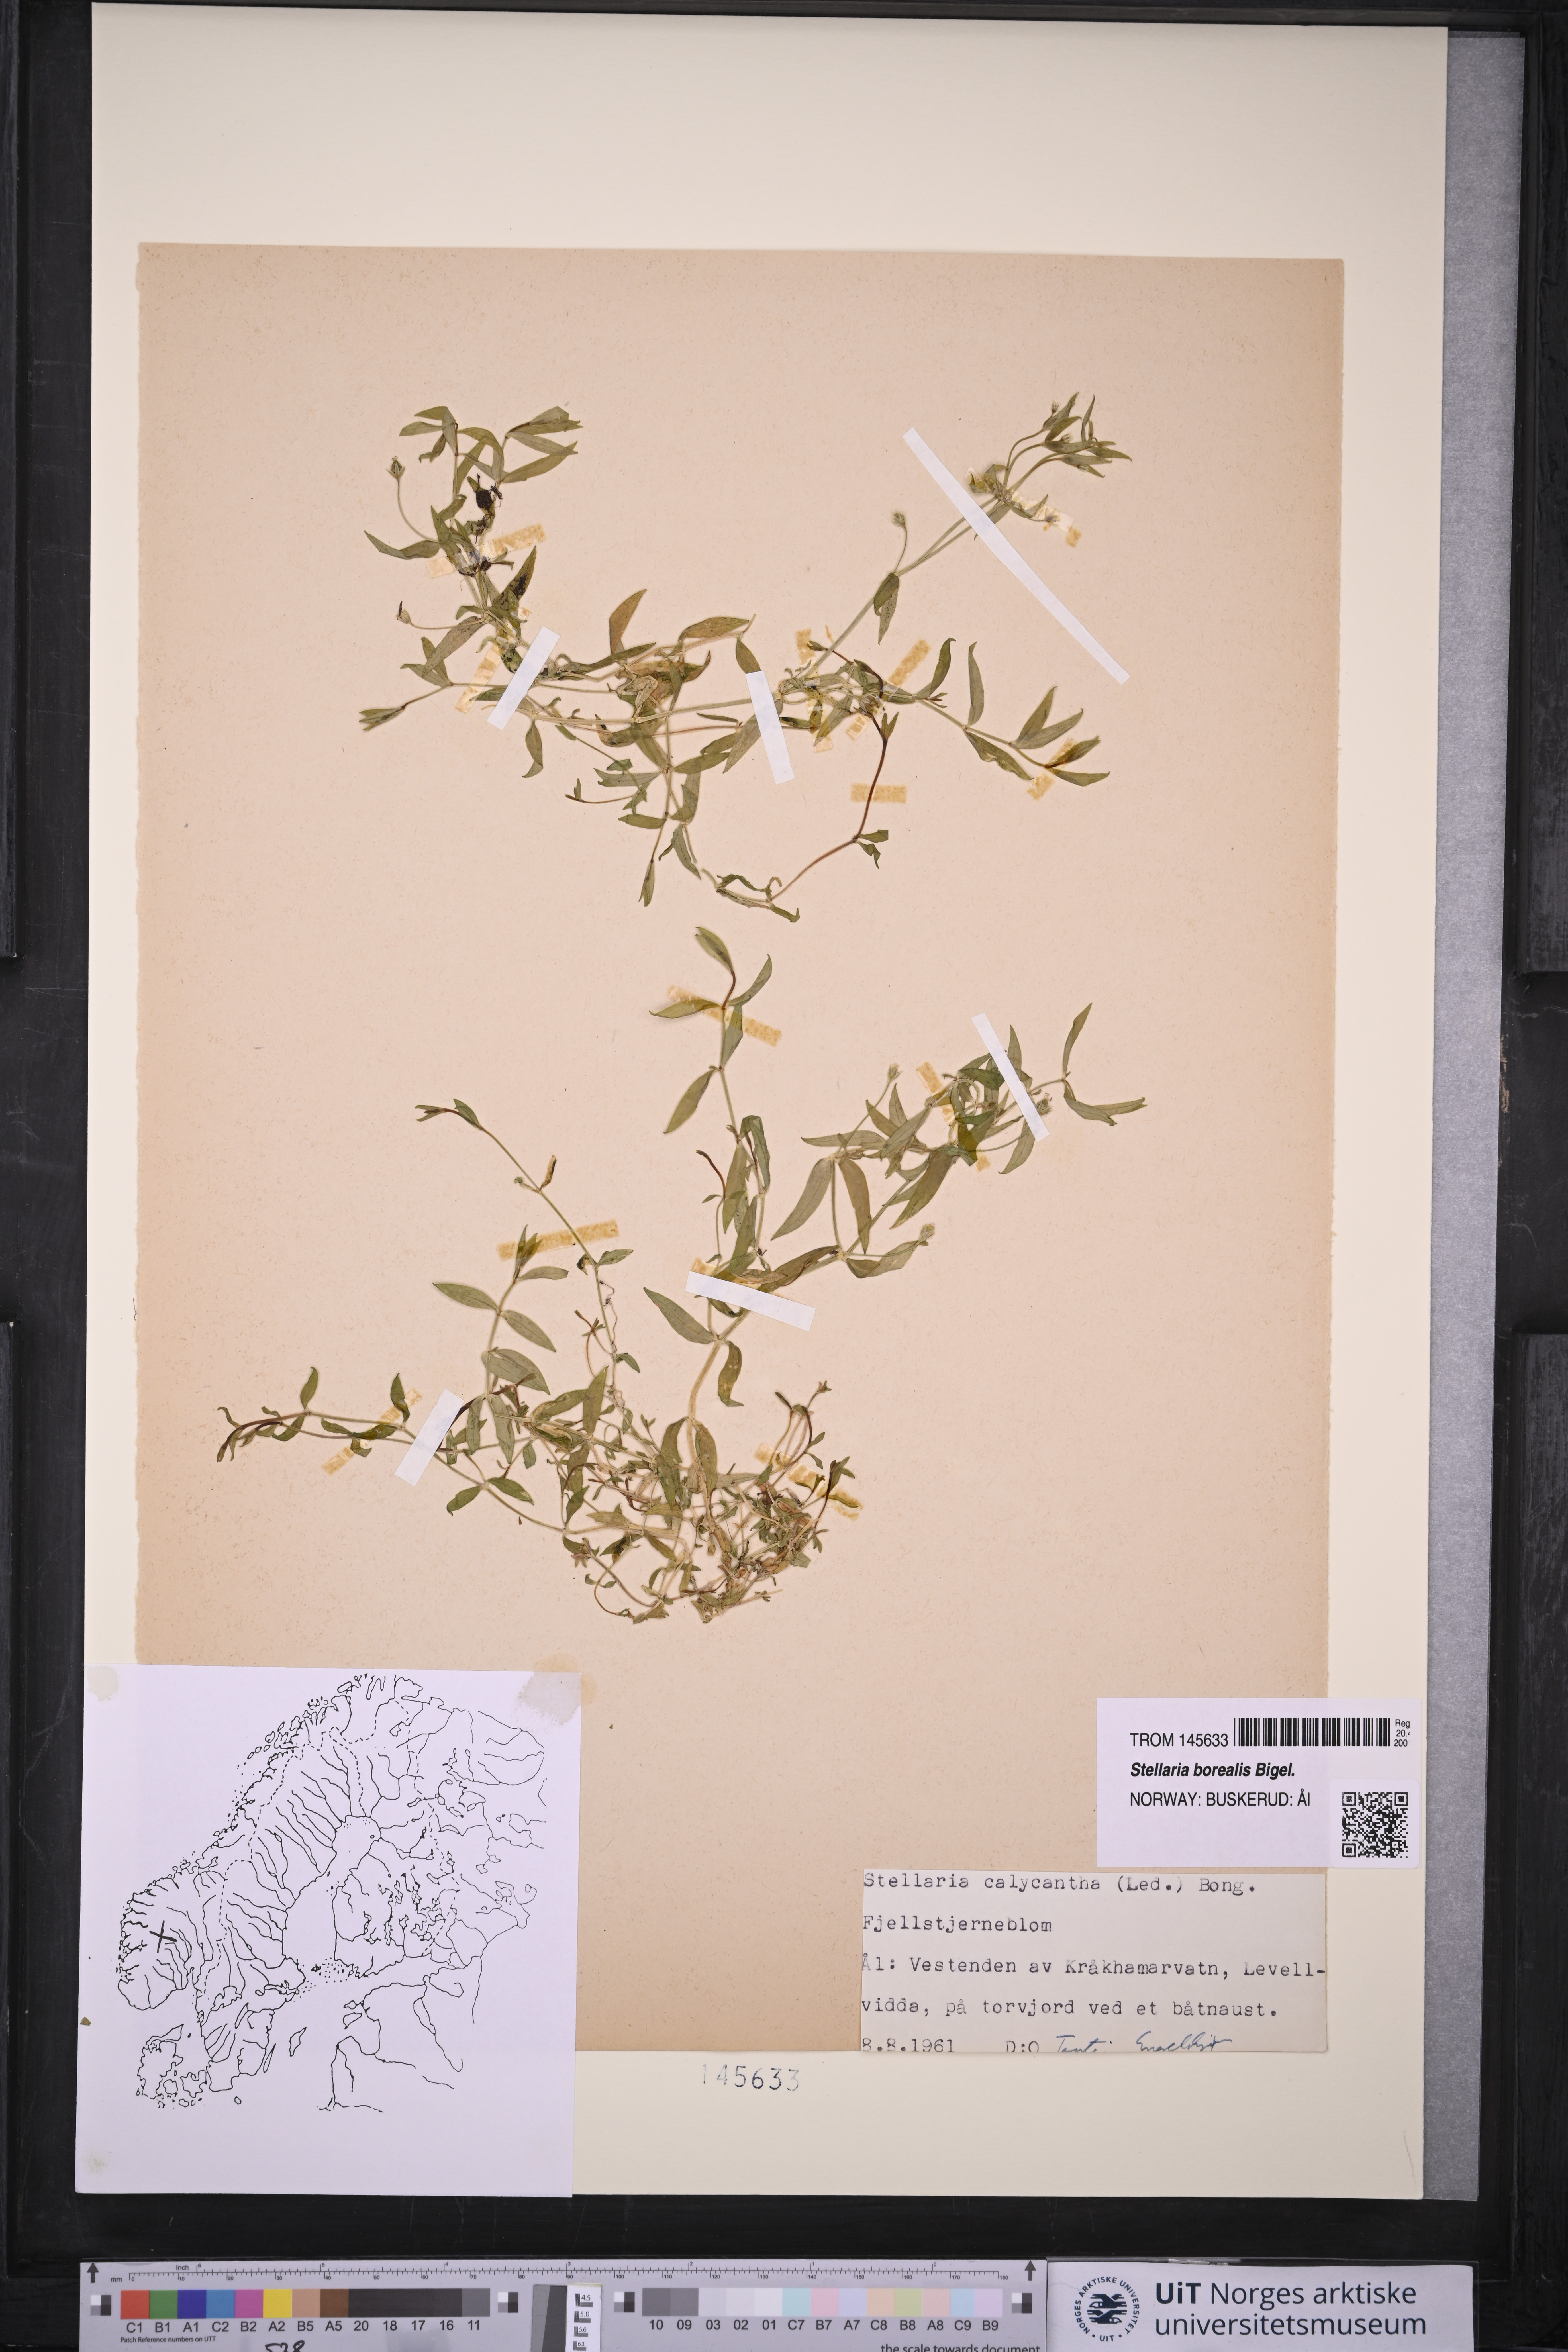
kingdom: Plantae
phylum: Tracheophyta
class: Magnoliopsida
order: Caryophyllales
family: Caryophyllaceae
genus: Stellaria
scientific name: Stellaria borealis
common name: Boreal starwort
